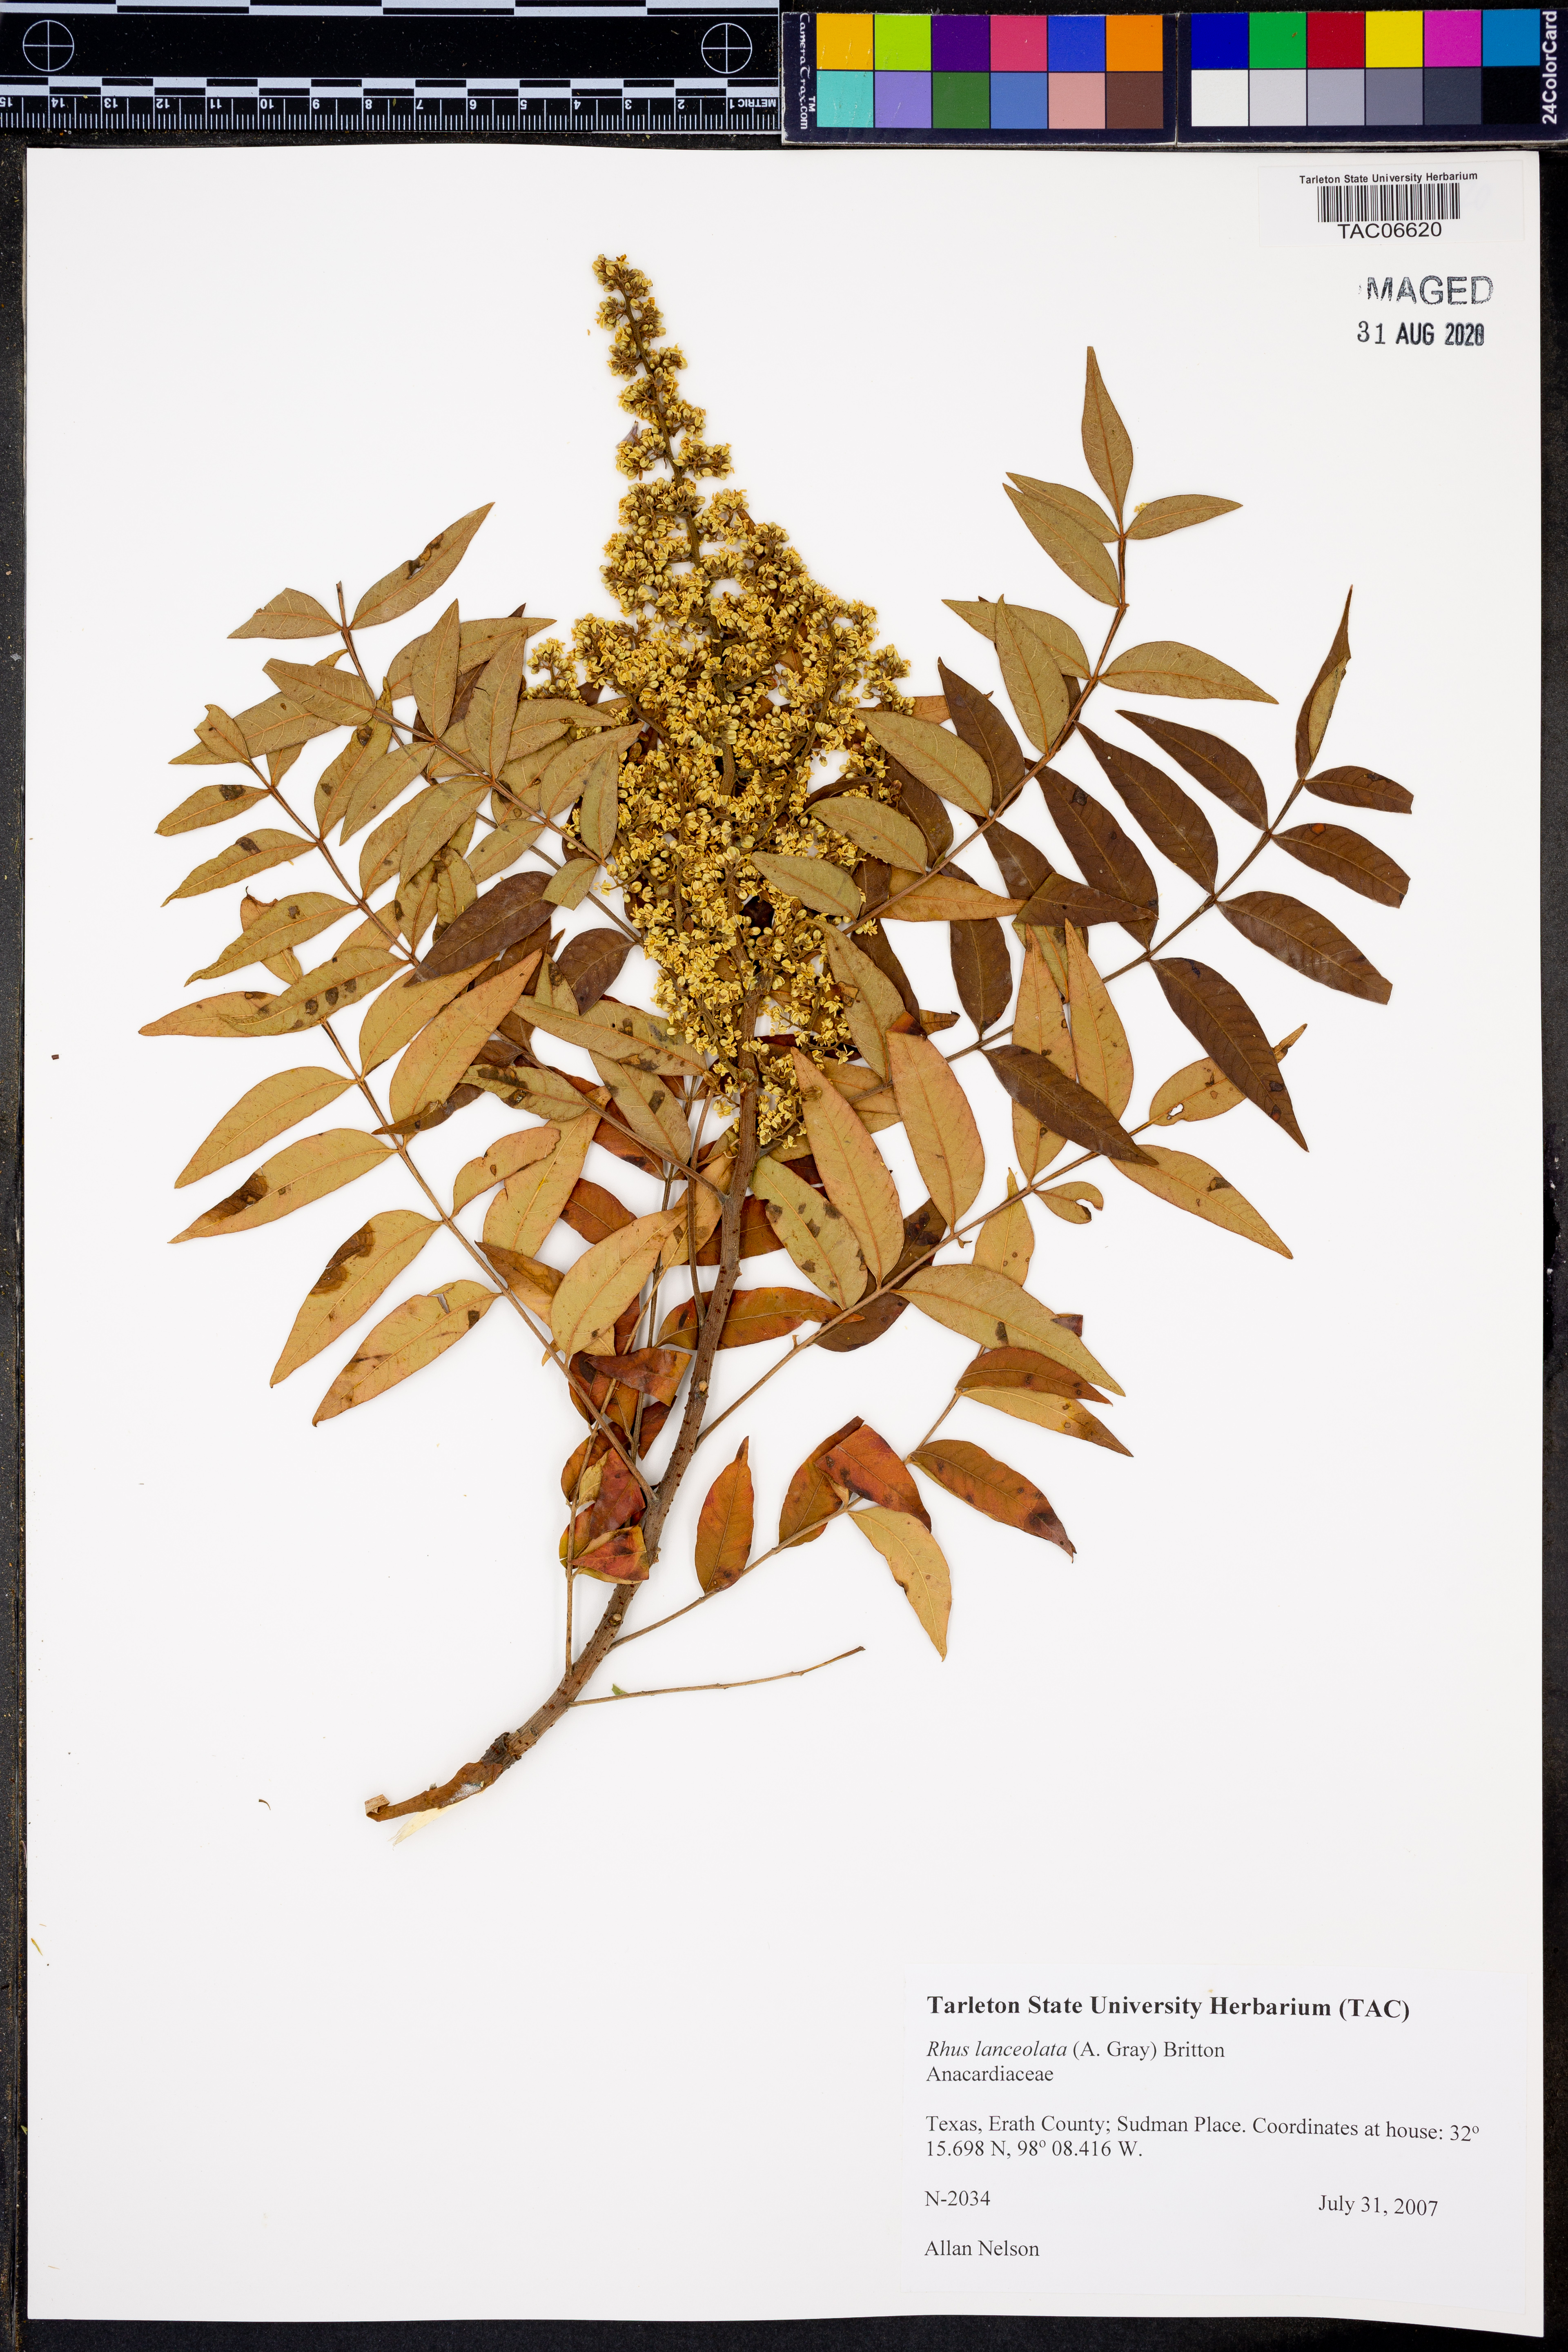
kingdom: Plantae
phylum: Tracheophyta
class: Magnoliopsida
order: Sapindales
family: Anacardiaceae
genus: Rhus
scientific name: Rhus lanceolata
